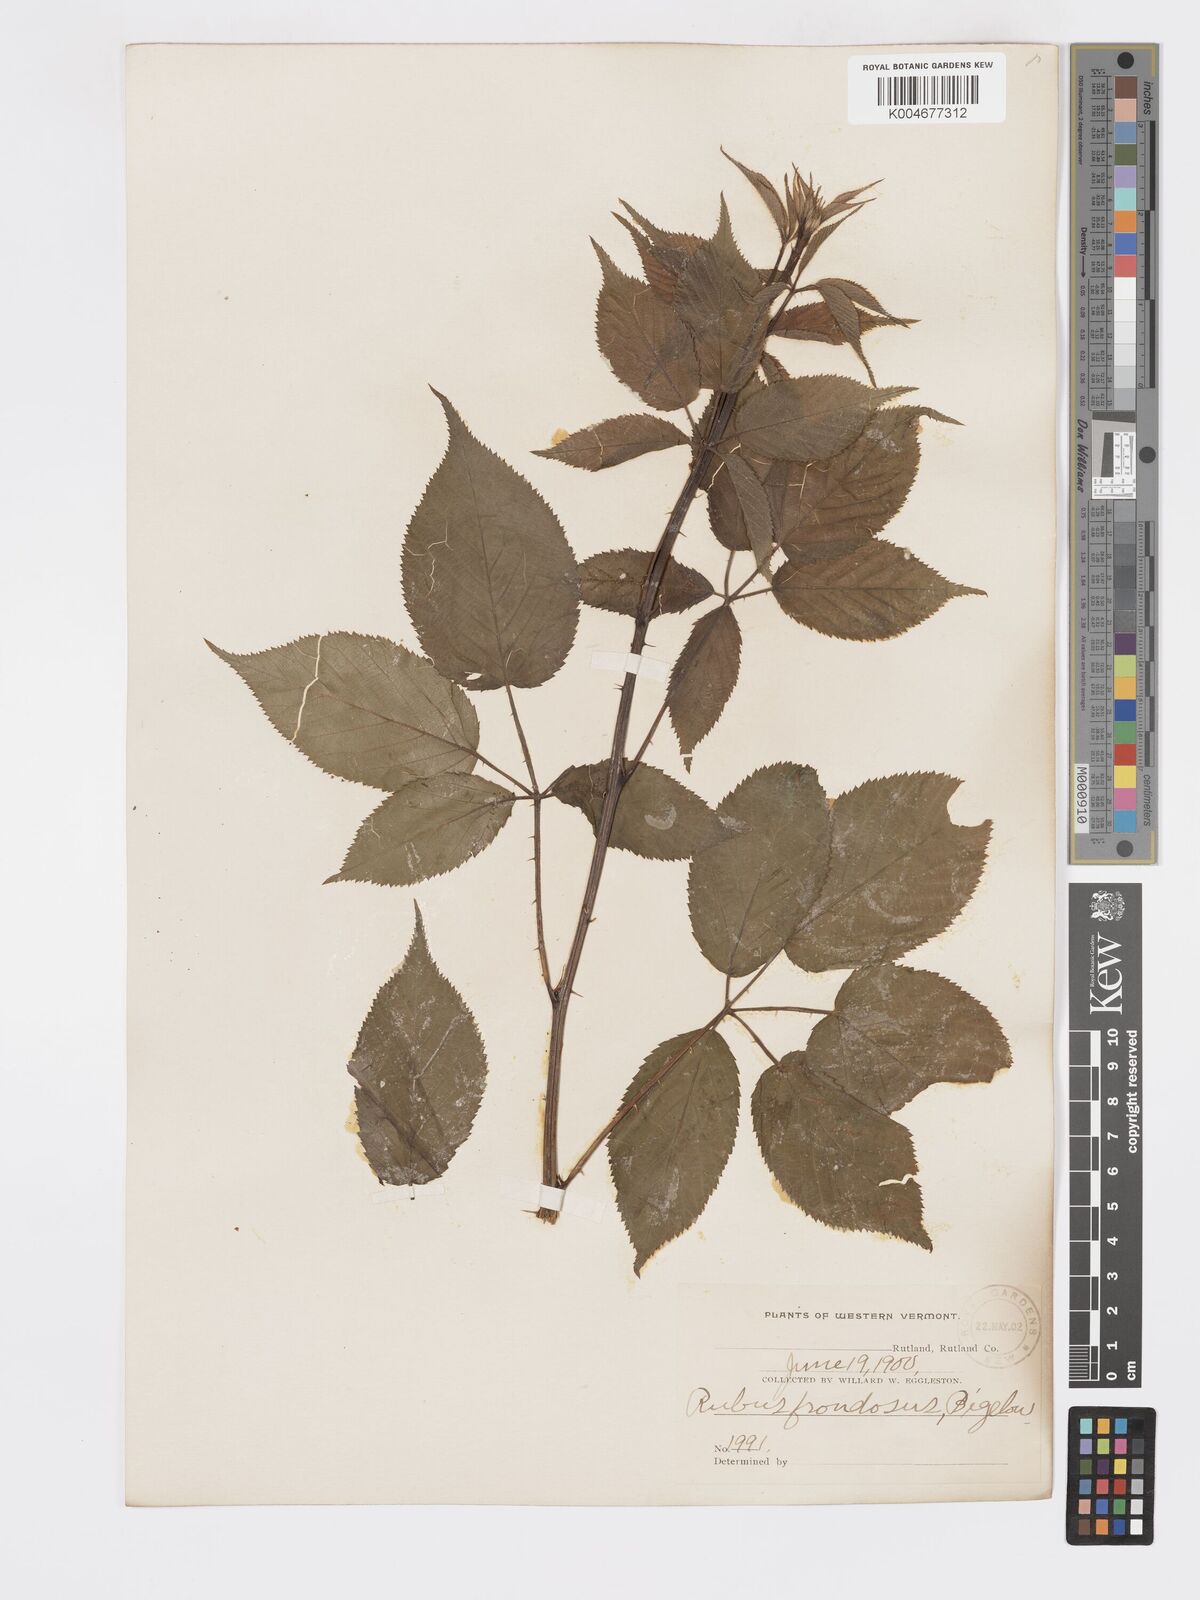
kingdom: Plantae
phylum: Tracheophyta
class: Magnoliopsida
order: Rosales
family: Rosaceae
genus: Rubus
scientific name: Rubus frondosus
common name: Yankee blackberry
